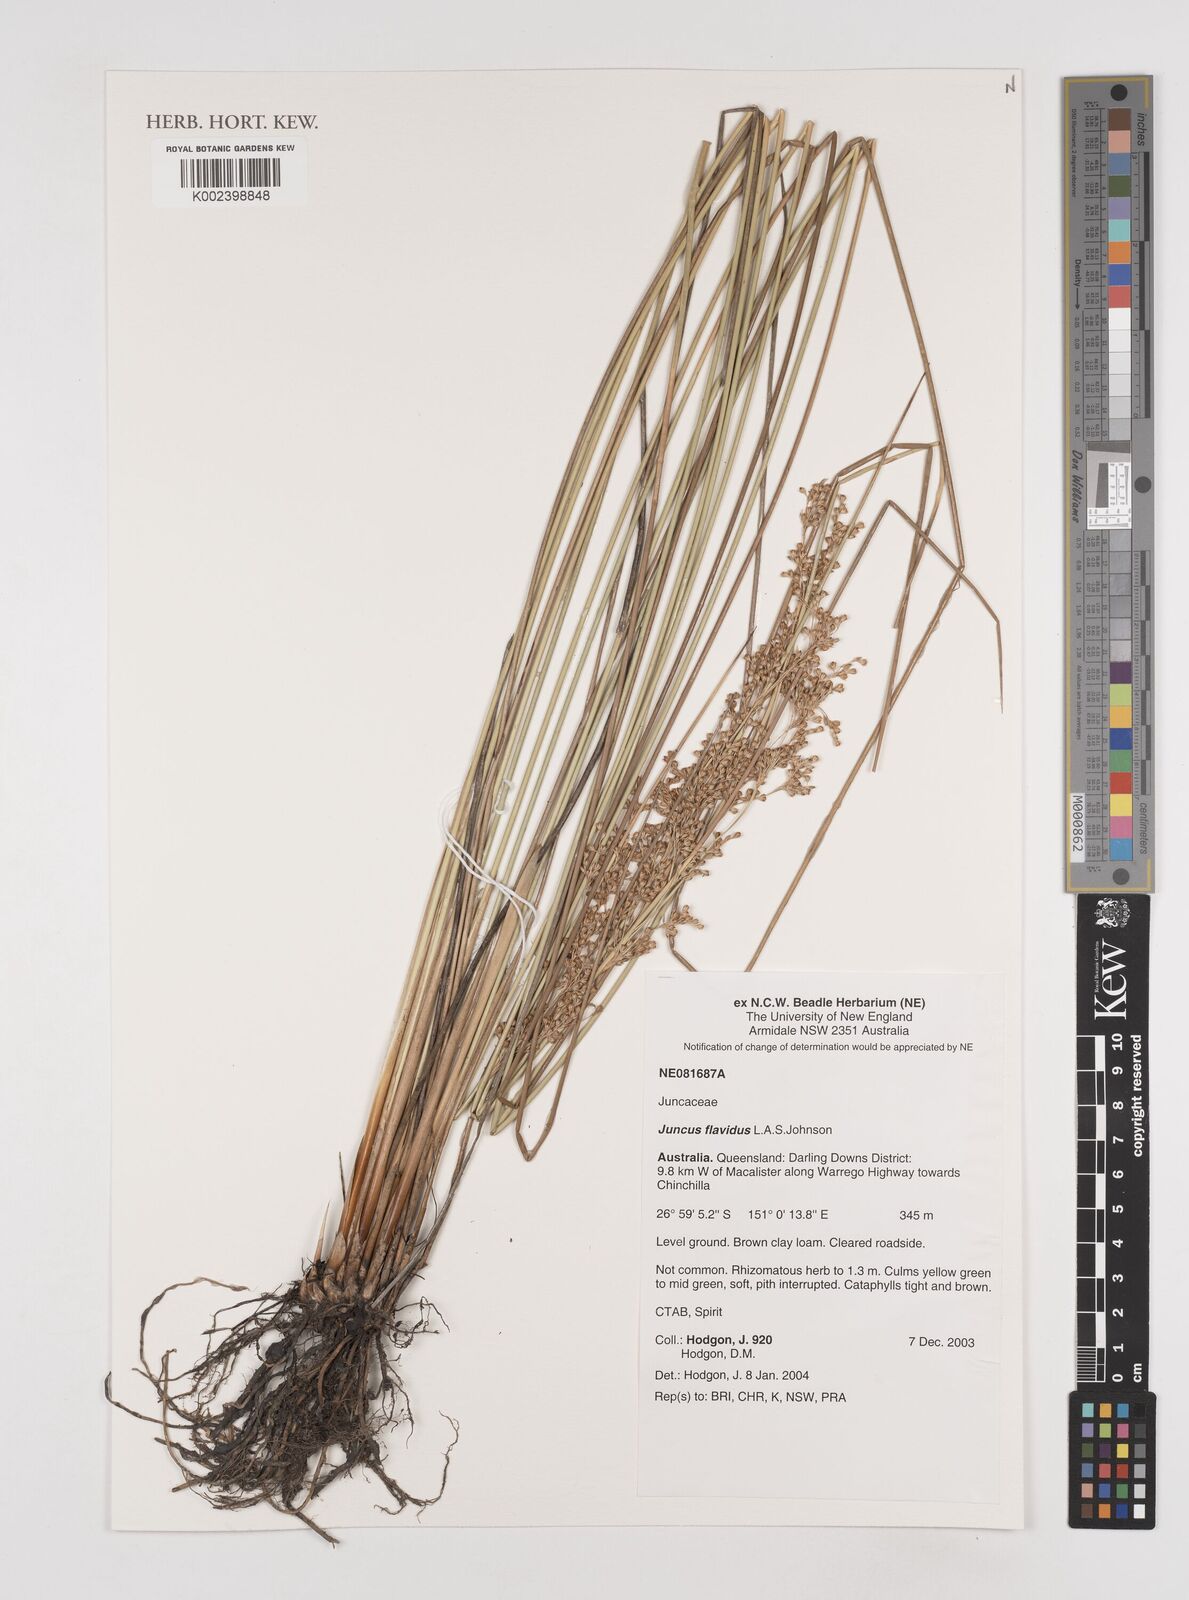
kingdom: Plantae
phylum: Tracheophyta
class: Liliopsida
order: Poales
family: Juncaceae
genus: Juncus
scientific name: Juncus flavidus
